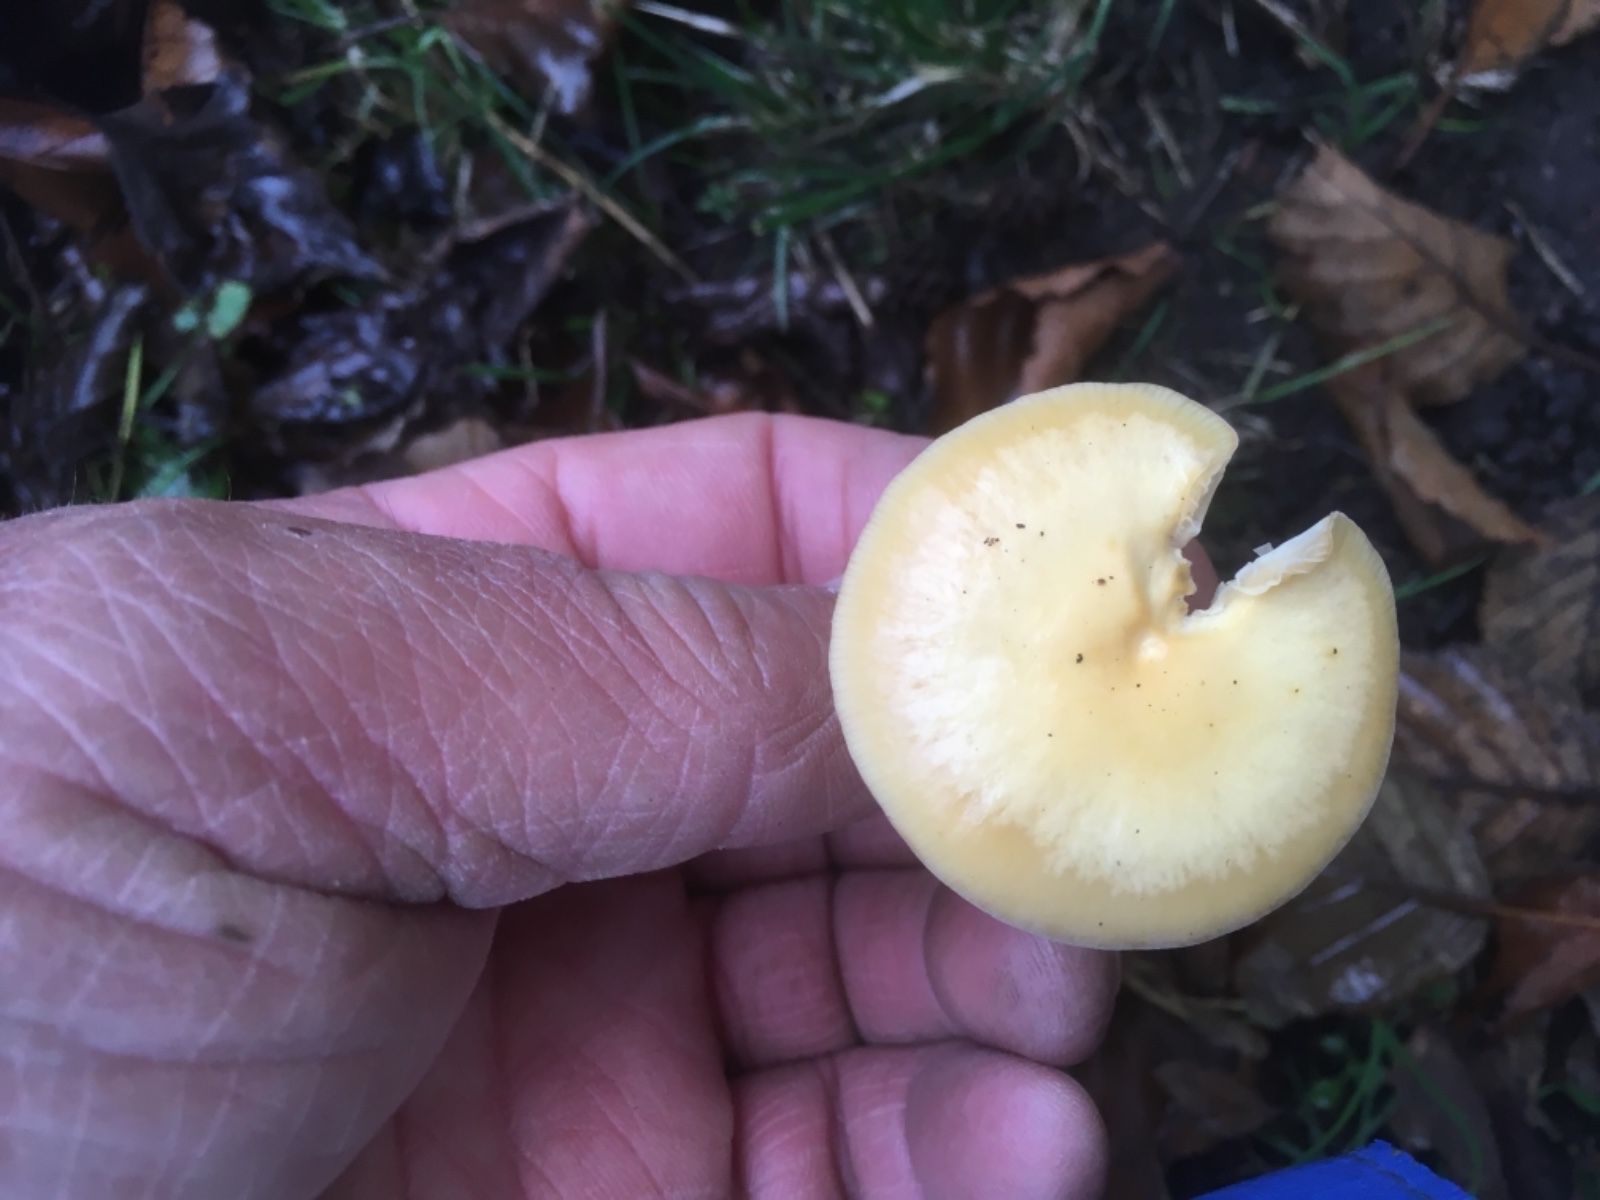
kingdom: Fungi
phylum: Basidiomycota
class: Agaricomycetes
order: Agaricales
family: Physalacriaceae
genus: Flammulina
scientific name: Flammulina
